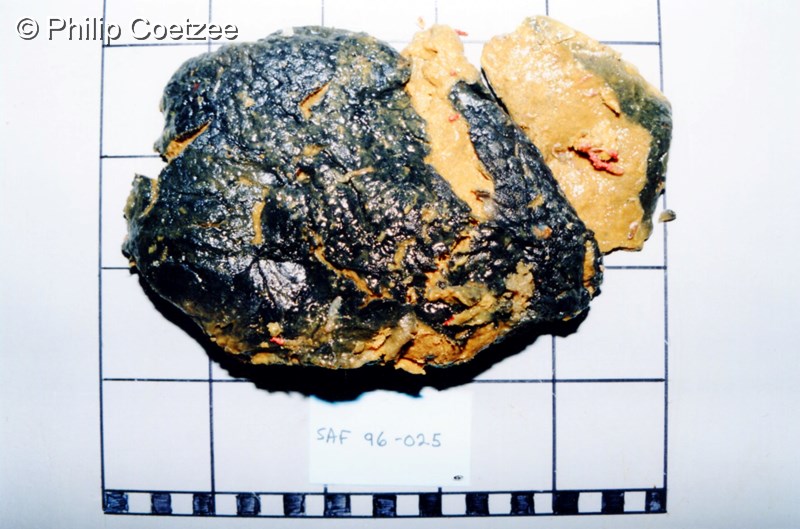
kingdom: Animalia
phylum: Porifera
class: Demospongiae
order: Poecilosclerida
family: Guitarridae
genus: Guitarra
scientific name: Guitarra flamenca
